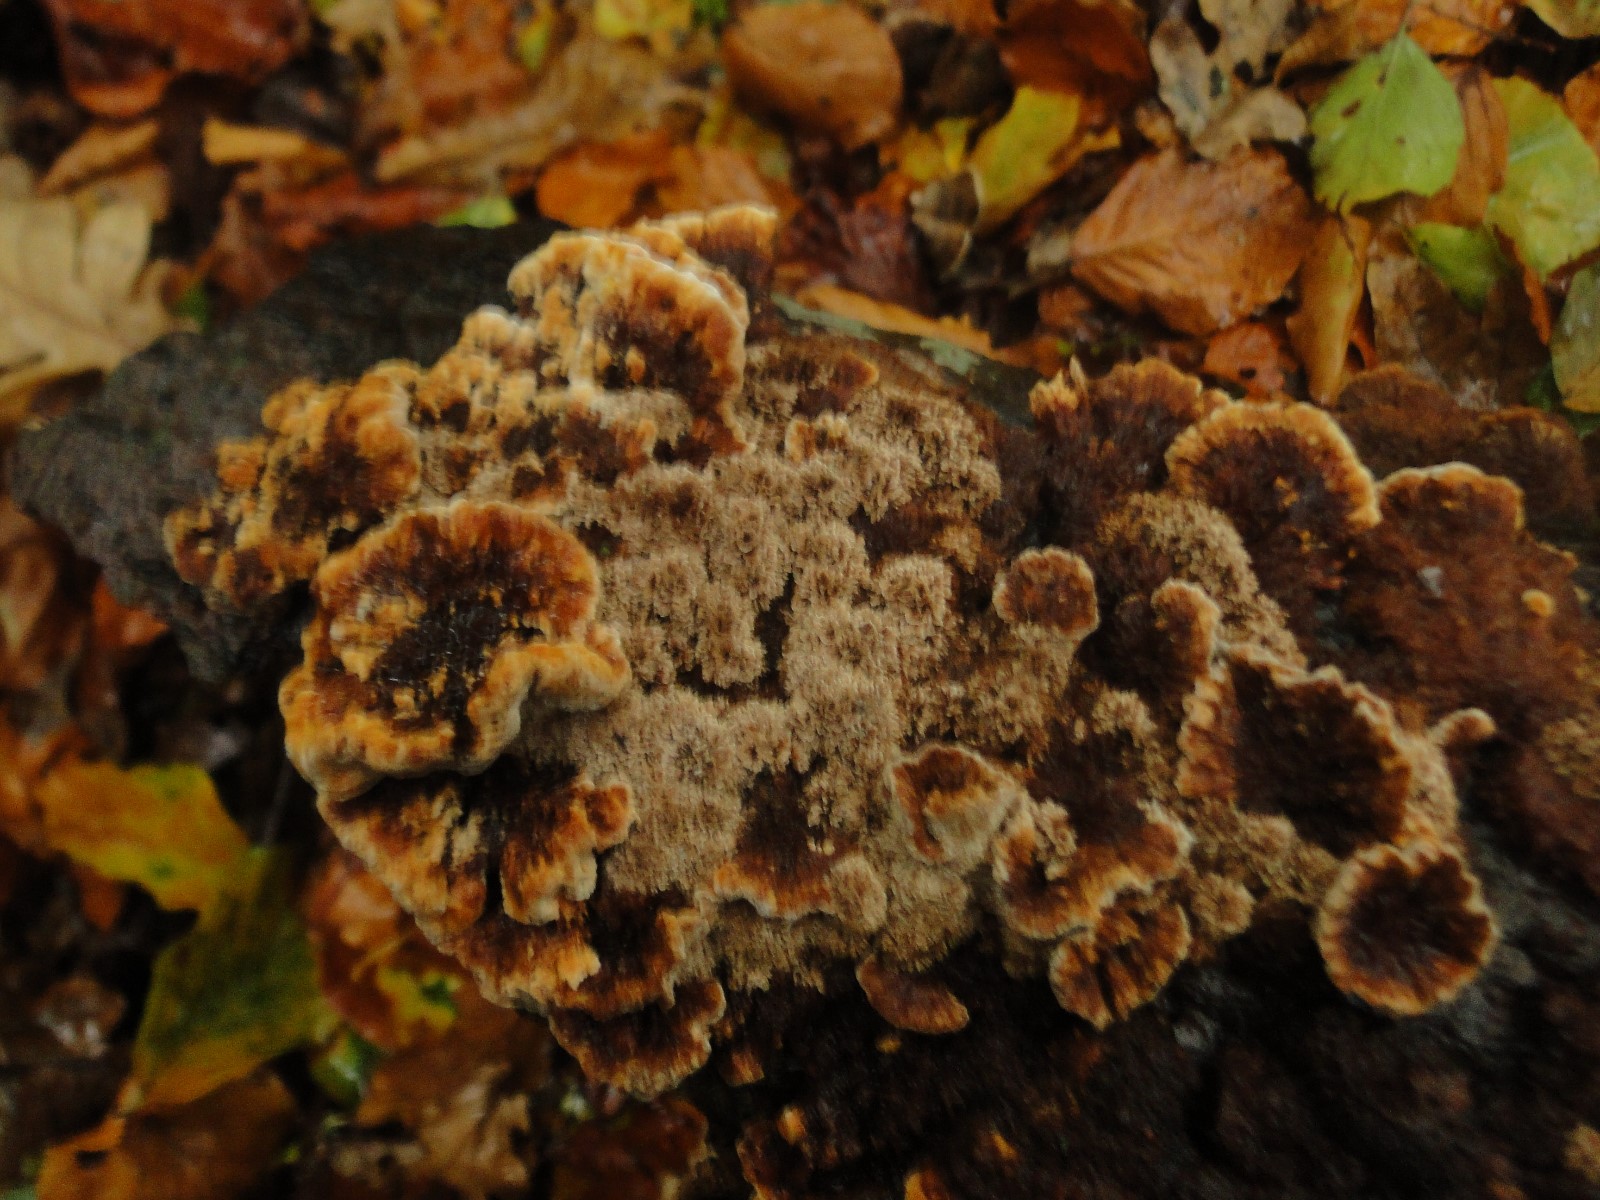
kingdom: Fungi
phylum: Basidiomycota
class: Agaricomycetes
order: Hymenochaetales
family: Hymenochaetaceae
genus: Mensularia
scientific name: Mensularia nodulosa
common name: bøge-spejlporesvamp
